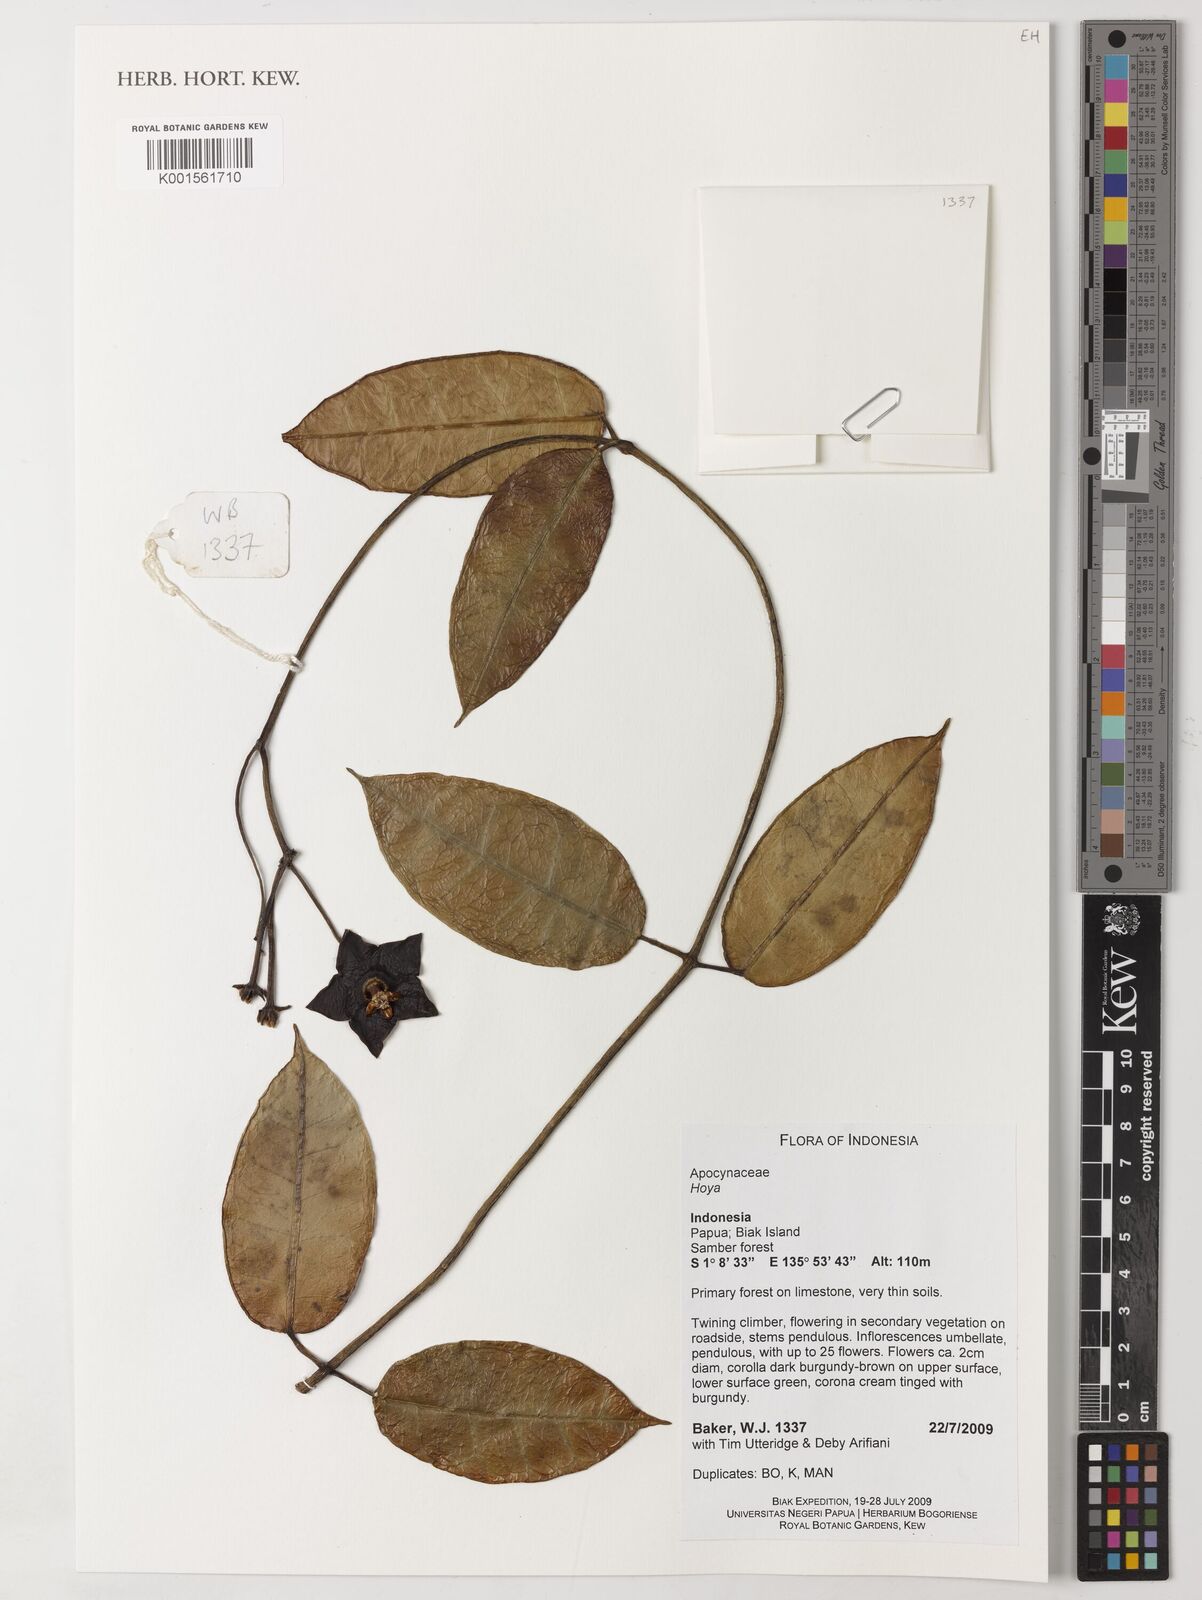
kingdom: Plantae
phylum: Tracheophyta
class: Magnoliopsida
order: Gentianales
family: Apocynaceae
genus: Hoya
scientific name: Hoya
